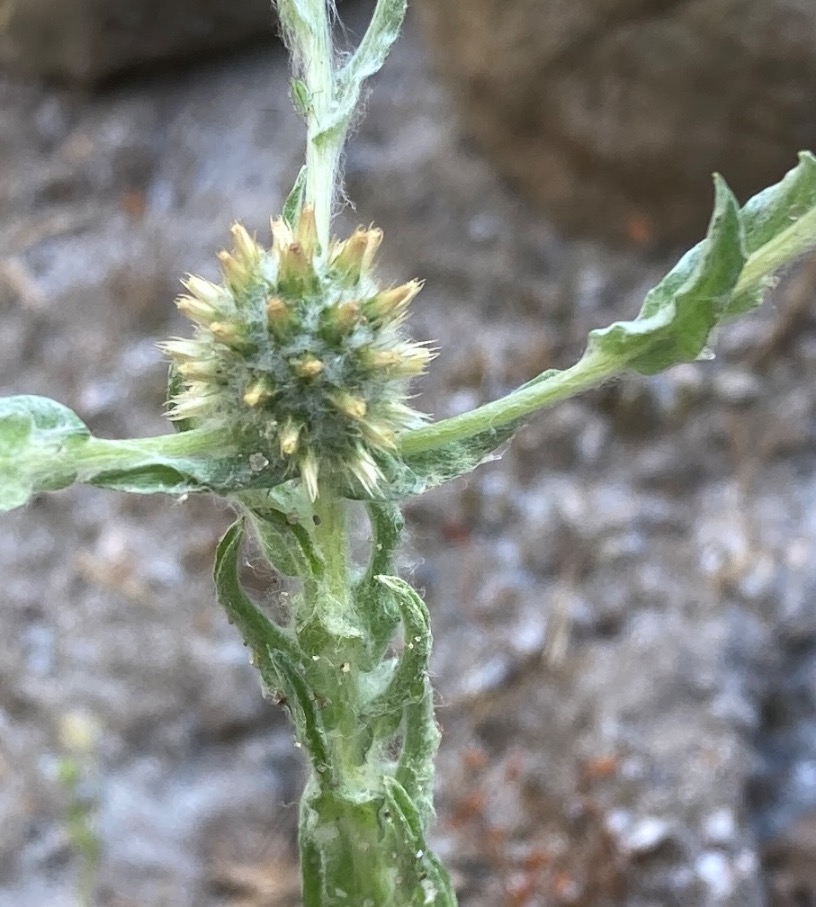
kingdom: Plantae
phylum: Tracheophyta
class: Magnoliopsida
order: Asterales
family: Asteraceae
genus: Filago
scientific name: Filago germanica
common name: Kugle-museurt
